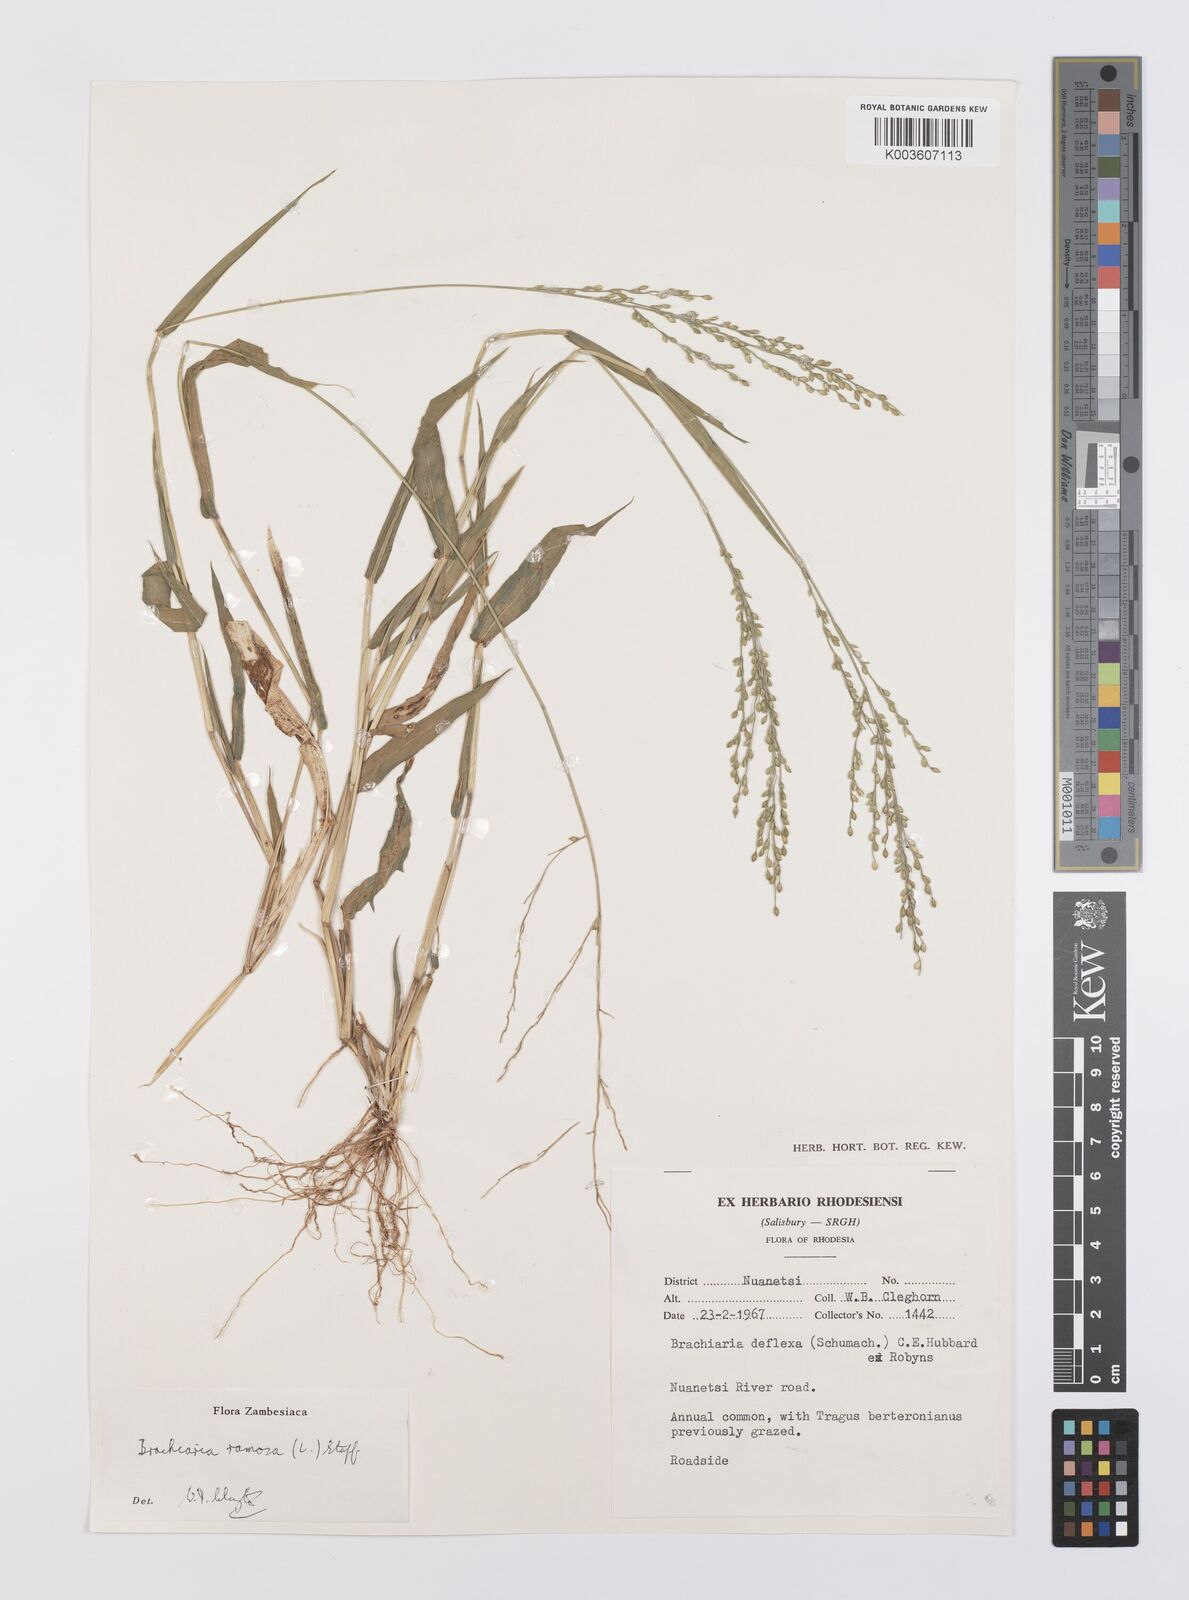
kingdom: Plantae
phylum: Tracheophyta
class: Liliopsida
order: Poales
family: Poaceae
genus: Urochloa
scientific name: Urochloa ramosa
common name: Browntop millet
